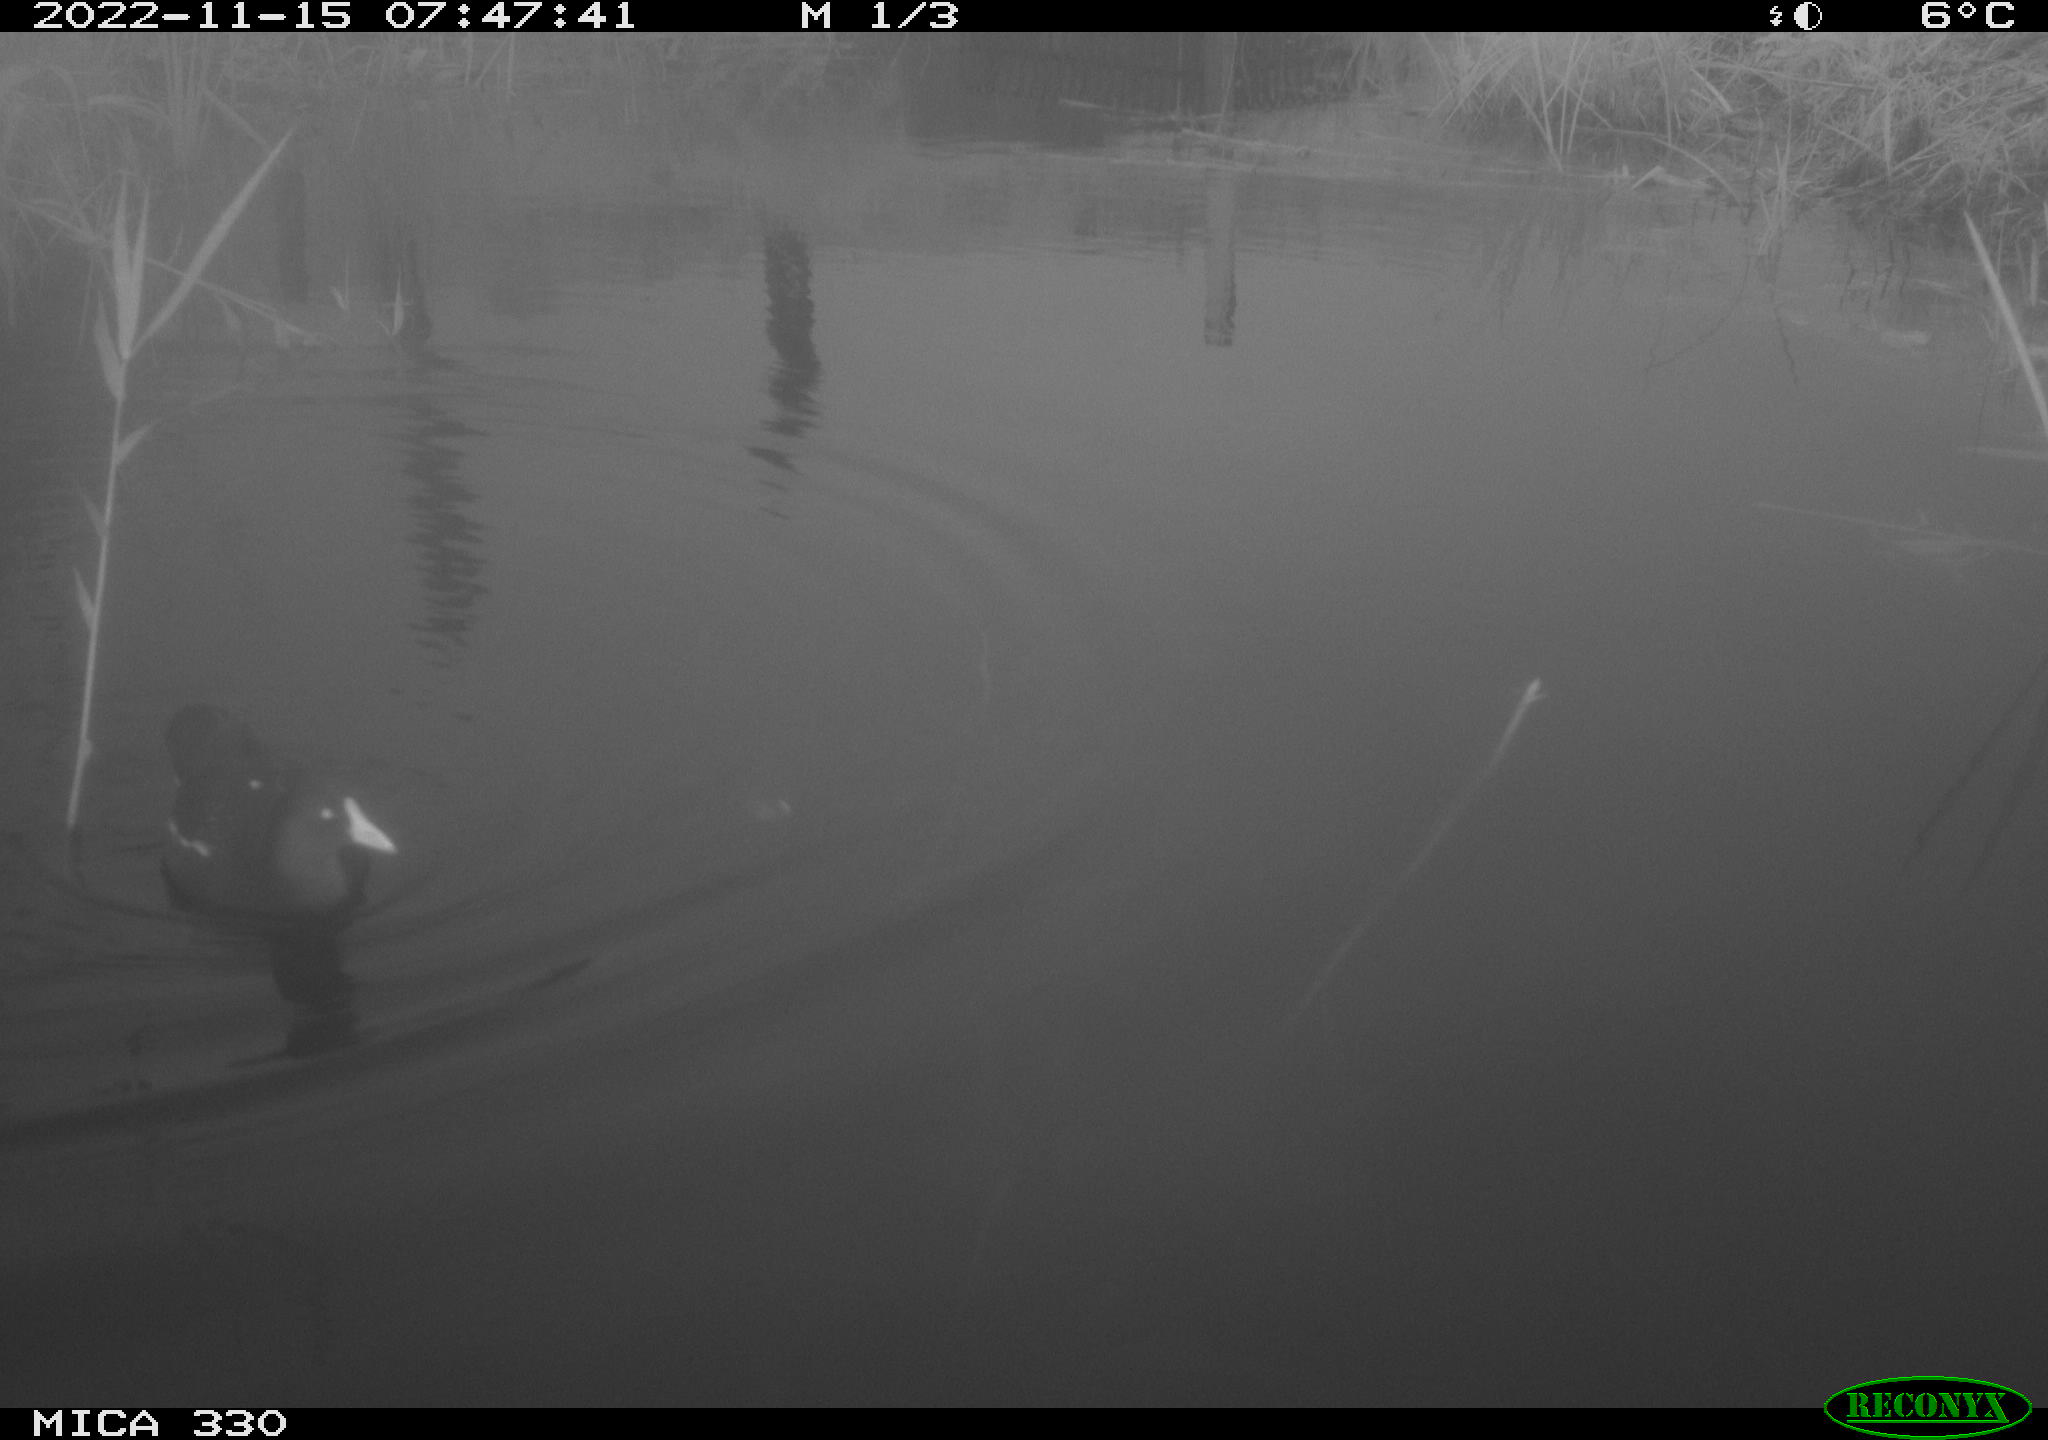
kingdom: Animalia
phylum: Chordata
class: Aves
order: Gruiformes
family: Rallidae
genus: Fulica
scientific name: Fulica atra
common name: Eurasian coot
